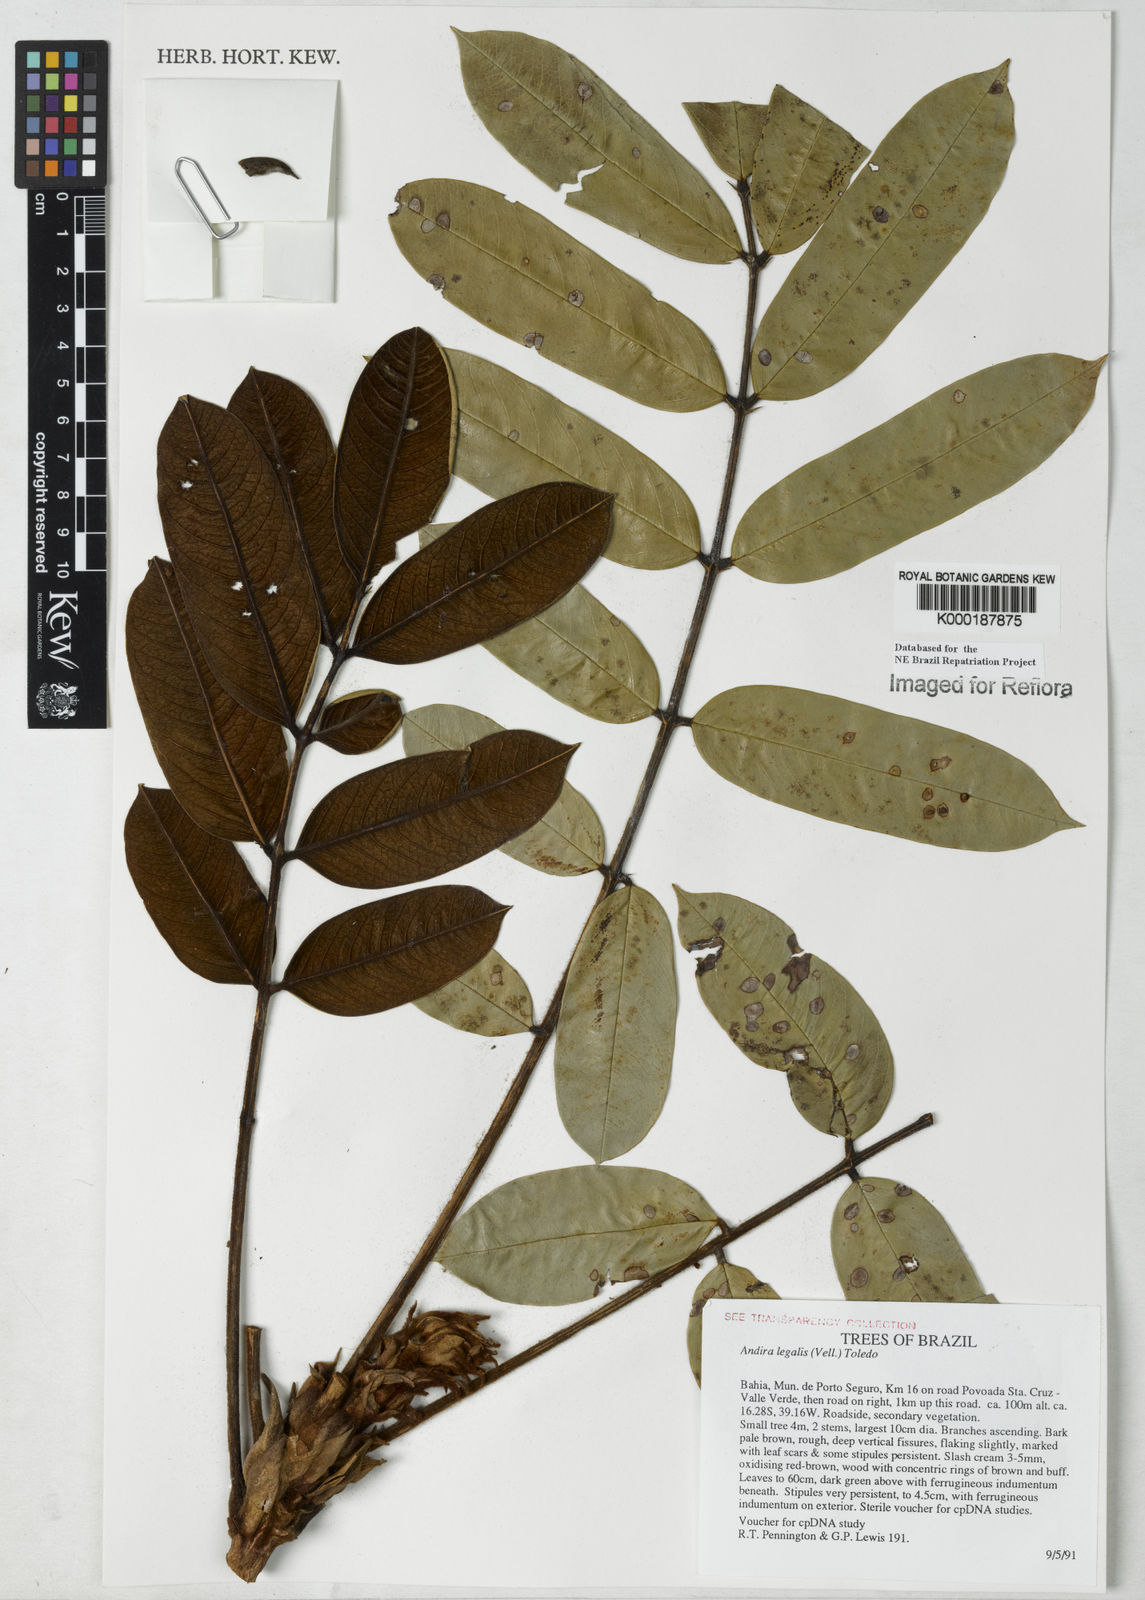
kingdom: Plantae
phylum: Tracheophyta
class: Magnoliopsida
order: Fabales
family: Fabaceae
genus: Andira
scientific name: Andira legalis
